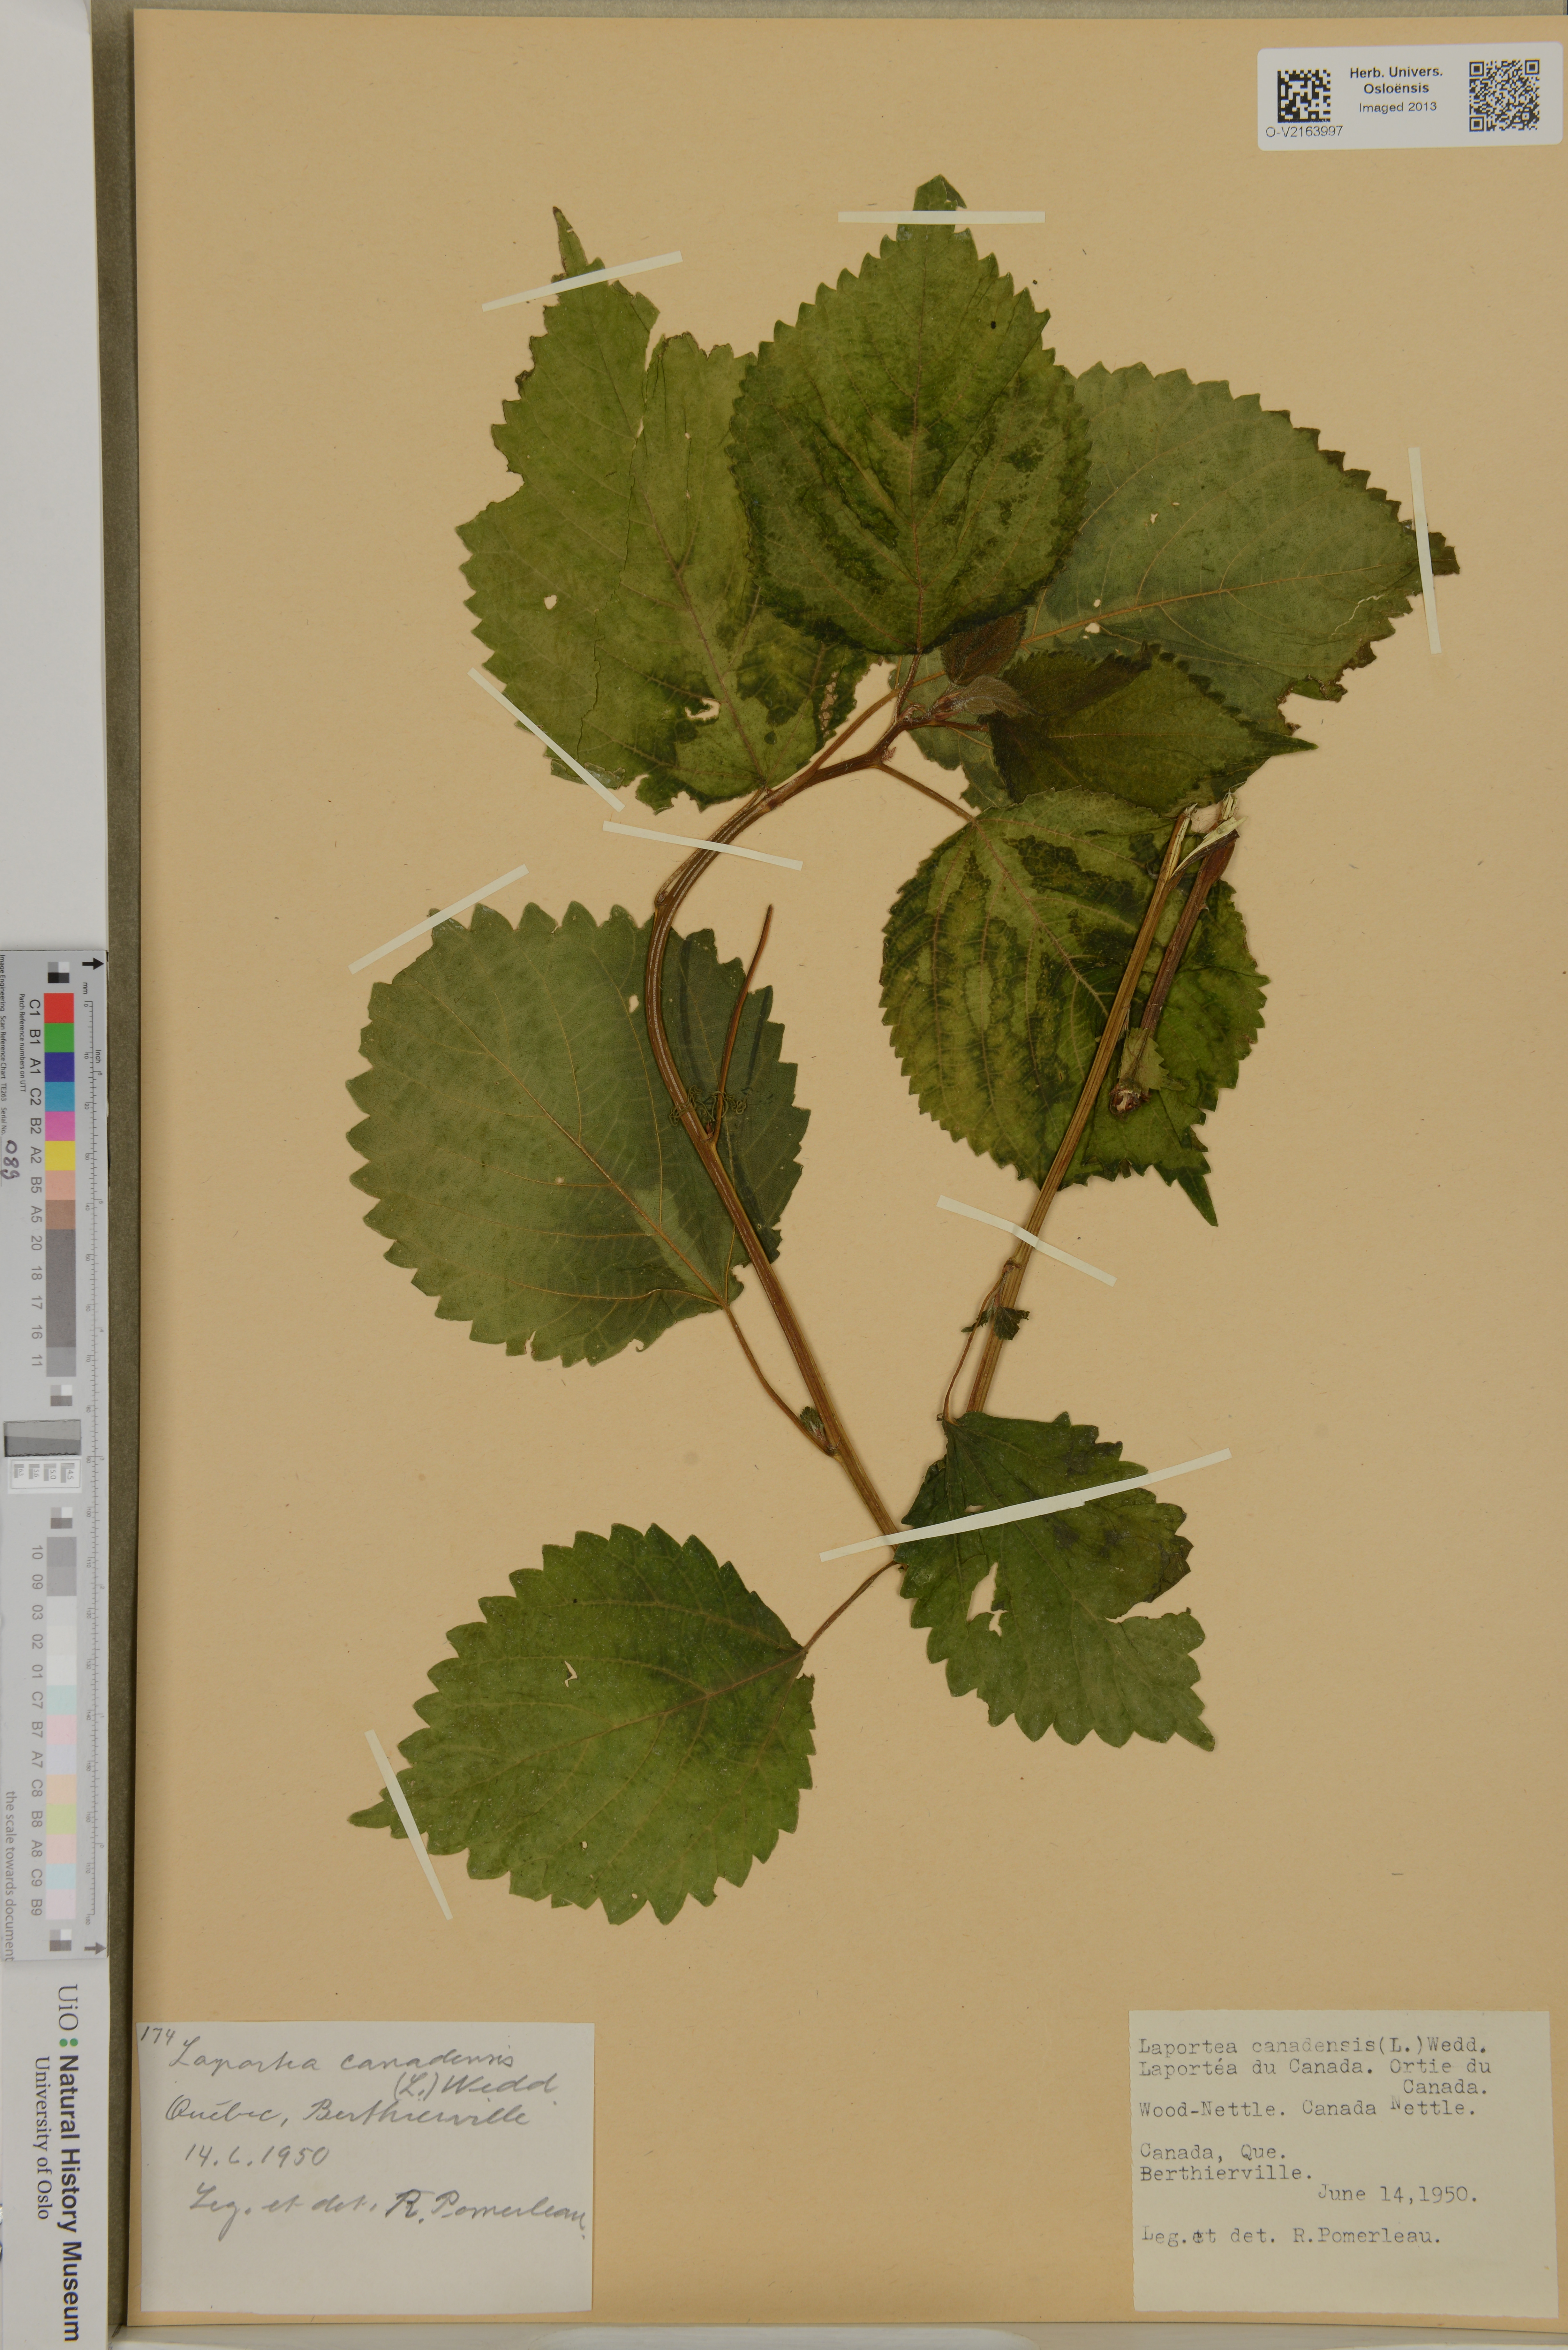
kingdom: Plantae
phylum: Tracheophyta
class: Magnoliopsida
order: Rosales
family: Urticaceae
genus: Laportea
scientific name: Laportea canadensis
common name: Canada nettle
